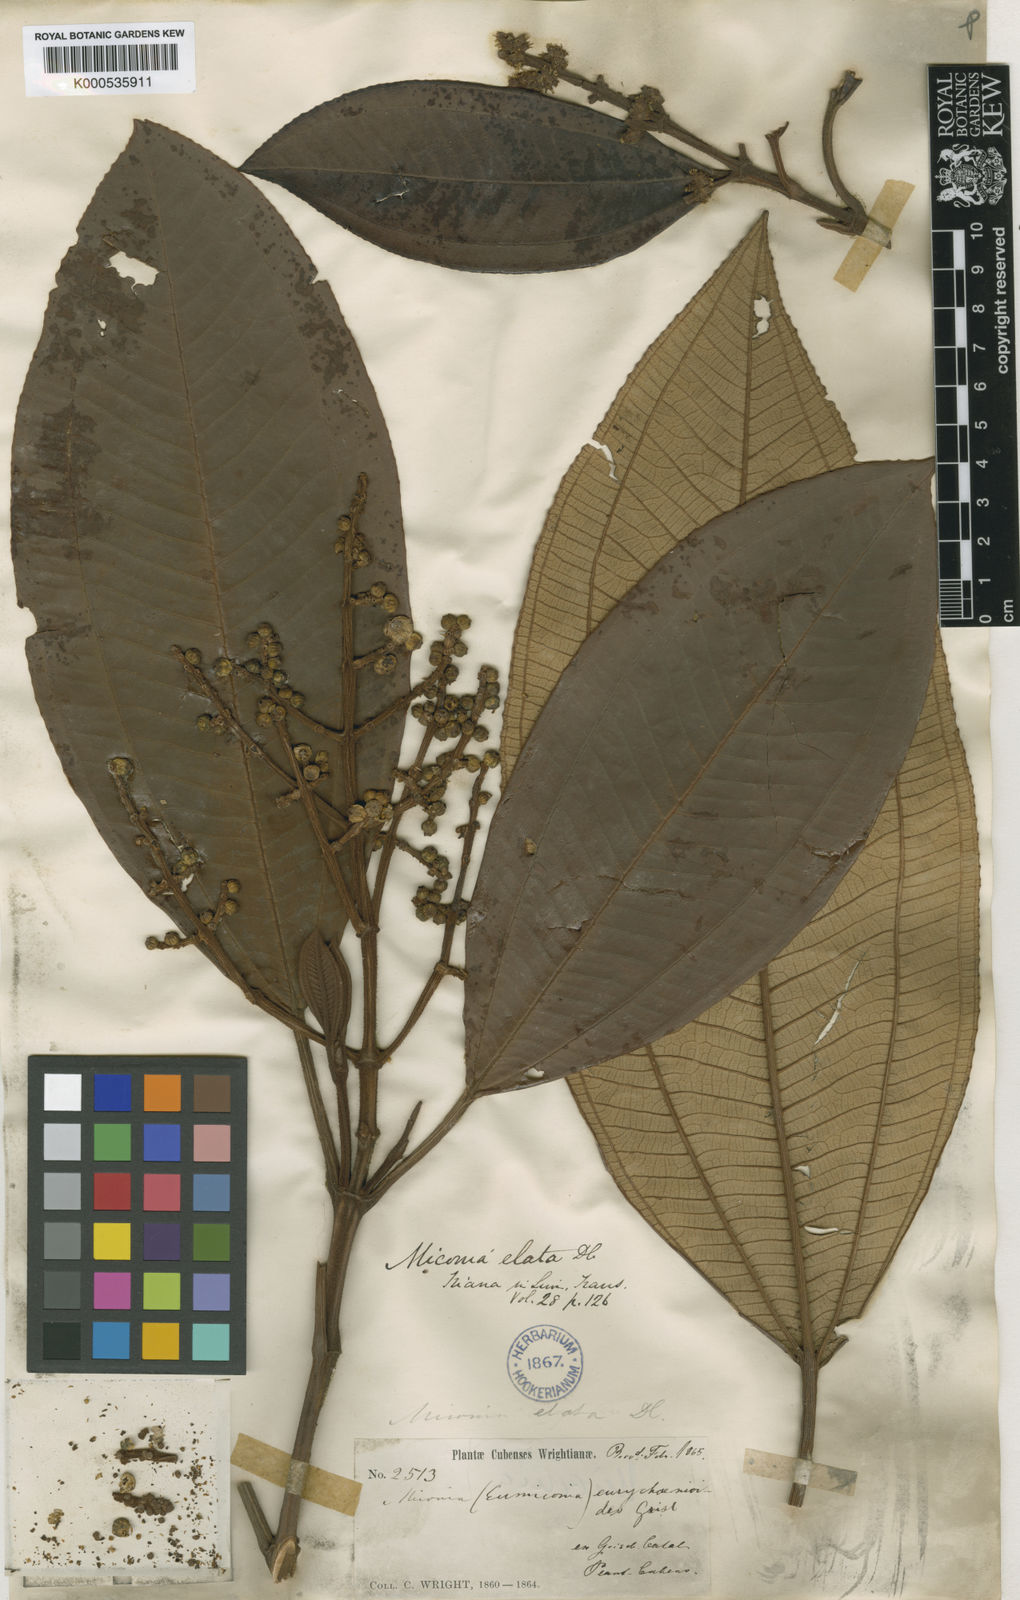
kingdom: Plantae
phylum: Tracheophyta
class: Magnoliopsida
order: Myrtales
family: Melastomataceae
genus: Miconia
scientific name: Miconia elata
